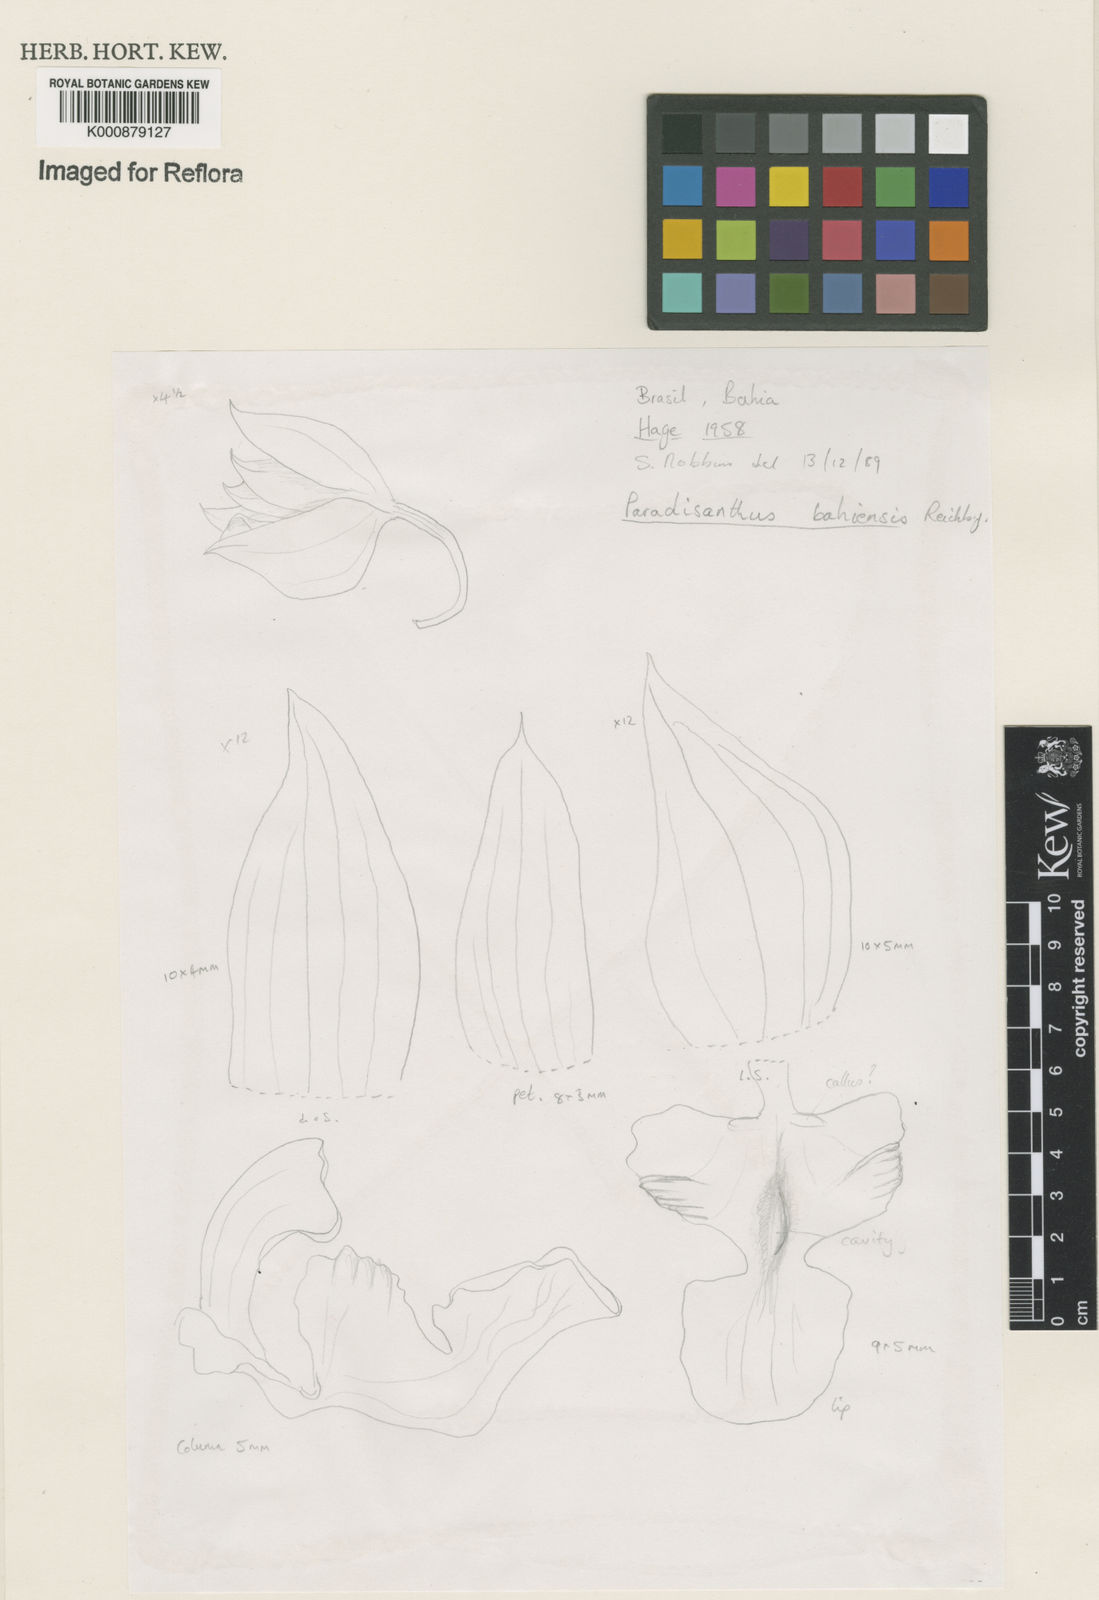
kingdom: Plantae
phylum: Tracheophyta
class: Liliopsida
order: Asparagales
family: Orchidaceae
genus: Paradisanthus
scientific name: Paradisanthus bahiensis
